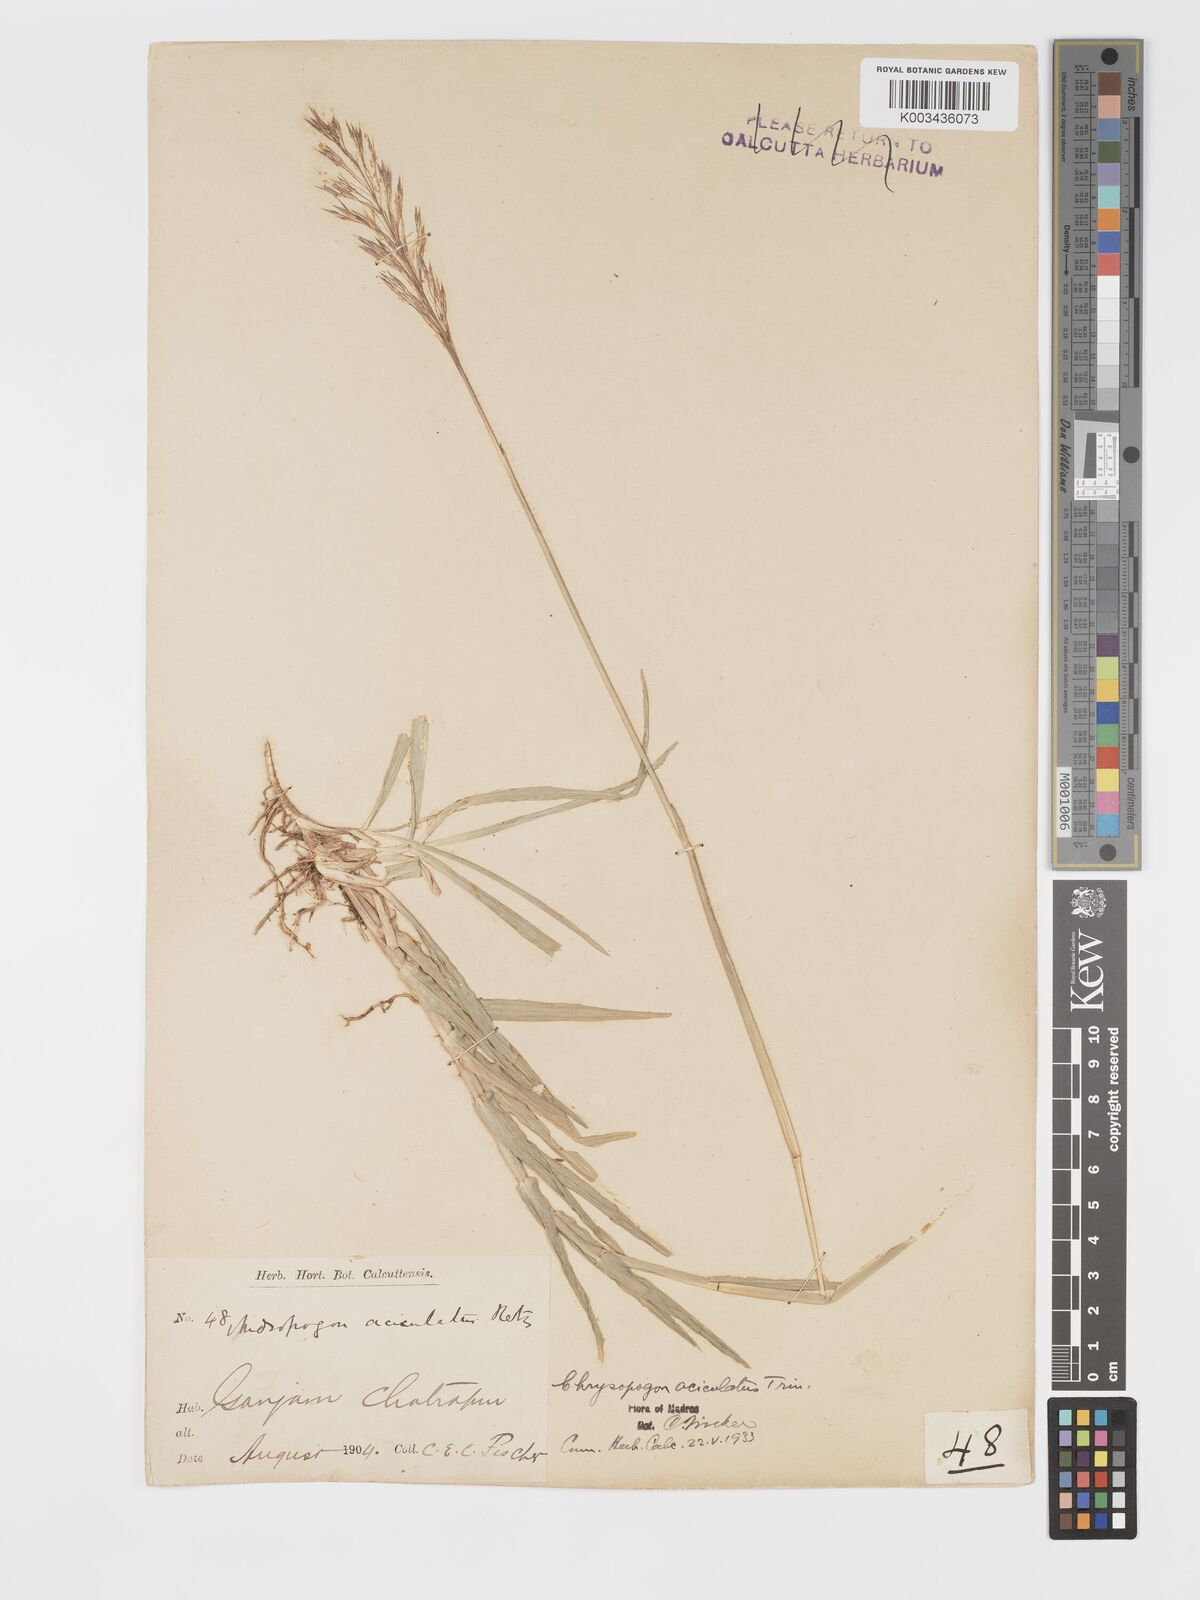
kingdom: Plantae
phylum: Tracheophyta
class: Liliopsida
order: Poales
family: Poaceae
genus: Chrysopogon
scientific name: Chrysopogon aciculatus
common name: Pilipiliula
